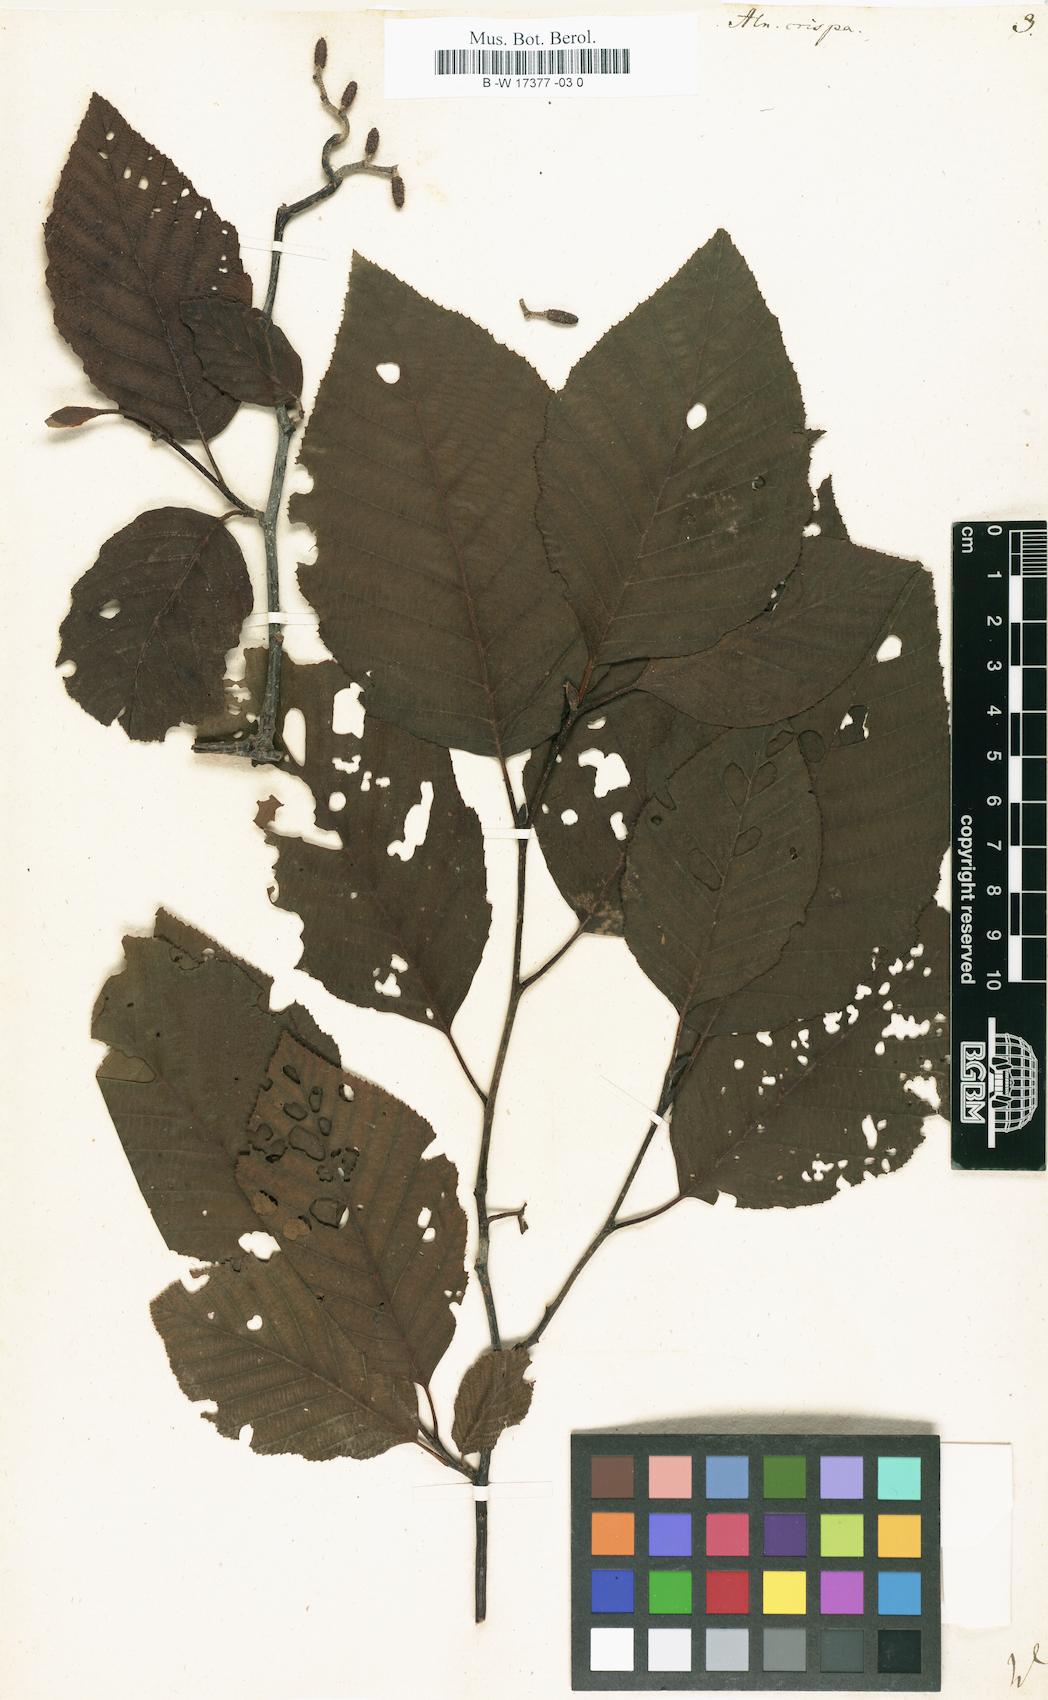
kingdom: Plantae
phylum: Tracheophyta
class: Magnoliopsida
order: Fagales
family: Betulaceae
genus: Alnus
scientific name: Alnus alnobetula
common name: Green alder
